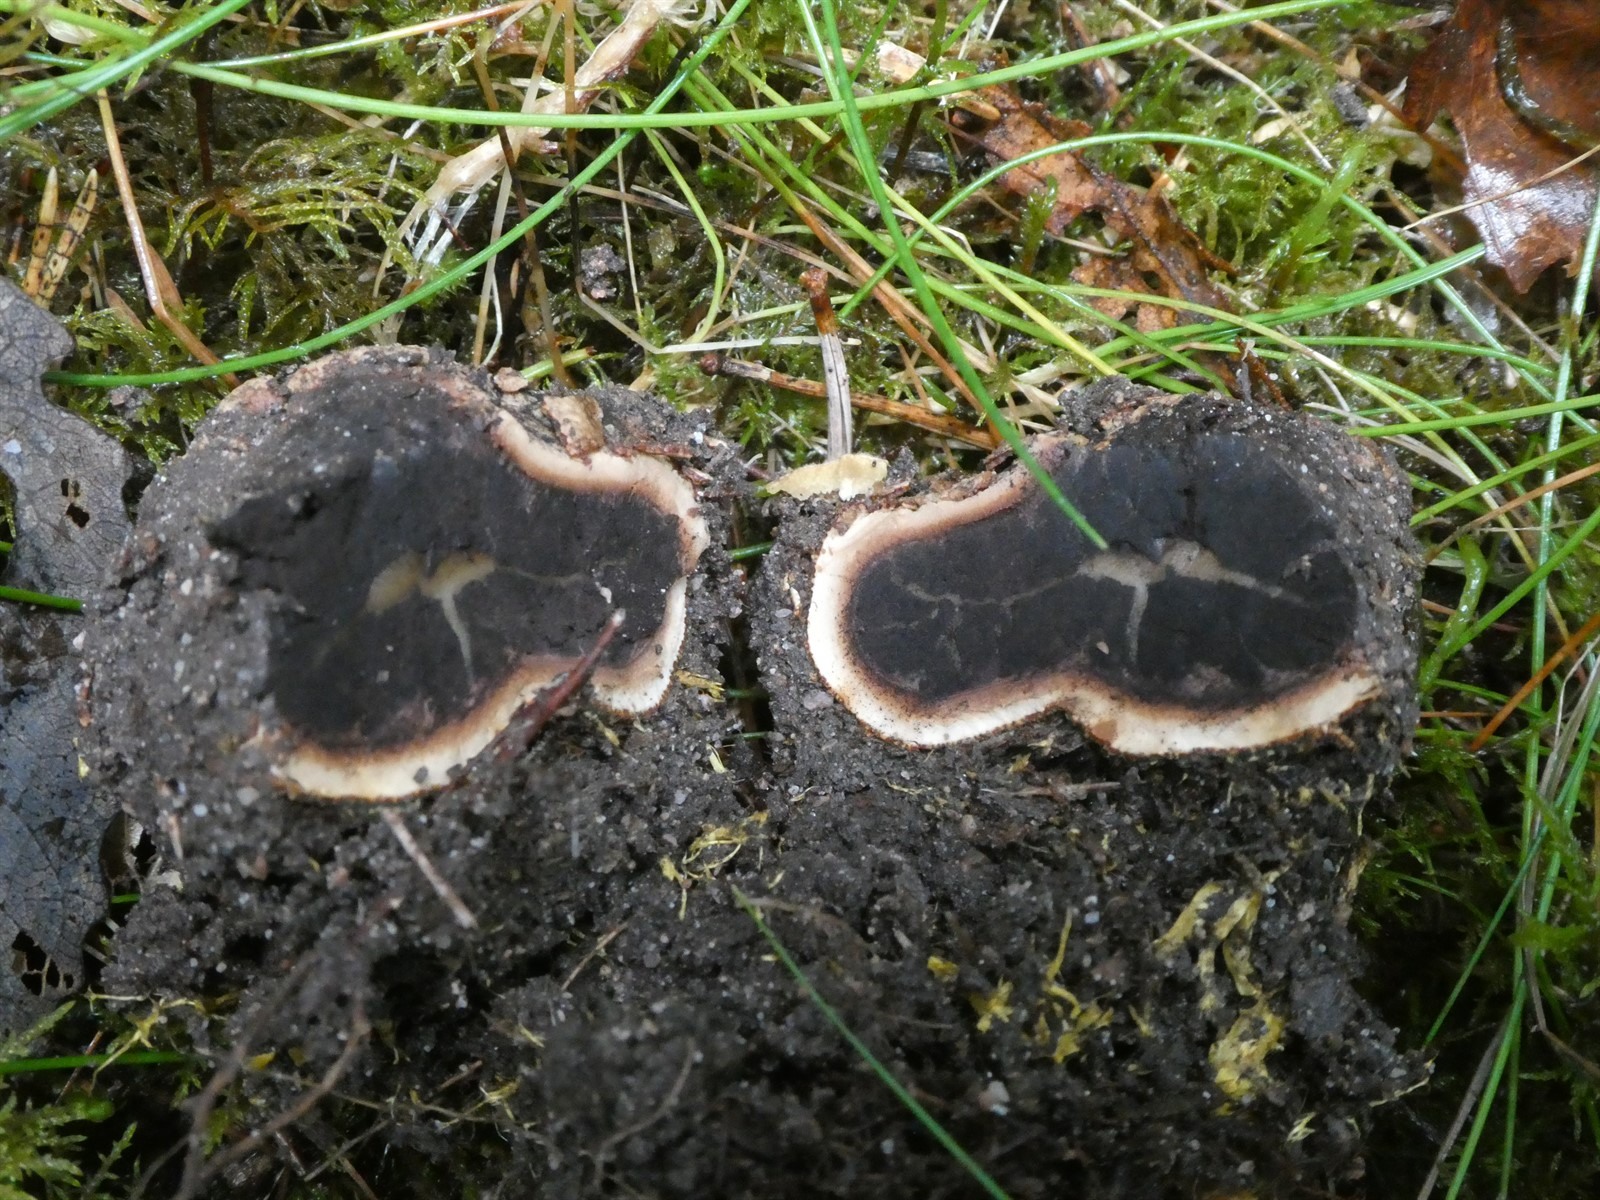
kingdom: Fungi
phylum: Ascomycota
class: Sordariomycetes
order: Hypocreales
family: Ophiocordycipitaceae
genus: Tolypocladium
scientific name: Tolypocladium ophioglossoides
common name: Snaketongue truffleclub
